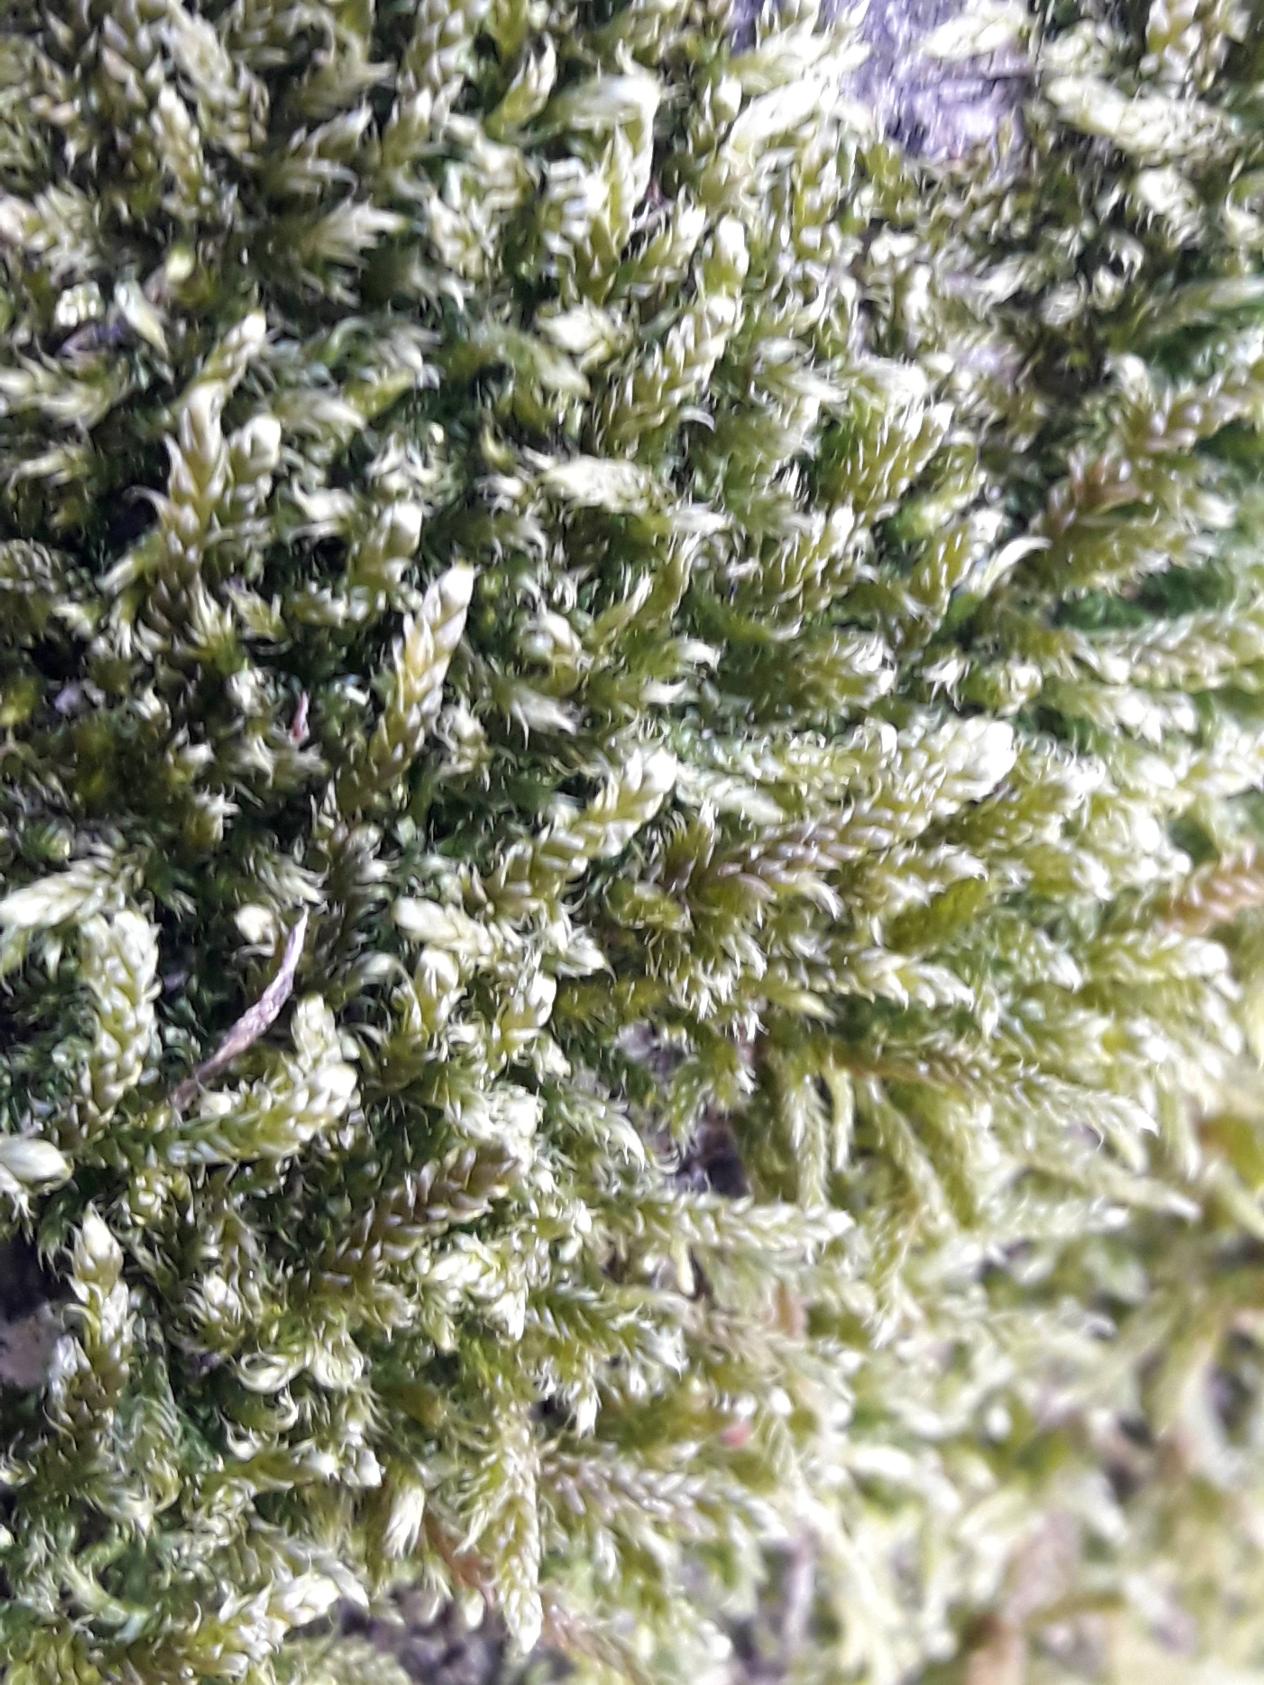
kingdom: Plantae
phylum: Bryophyta
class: Bryopsida
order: Hypnales
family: Hypnaceae
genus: Hypnum
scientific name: Hypnum cupressiforme
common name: Almindelig cypresmos
